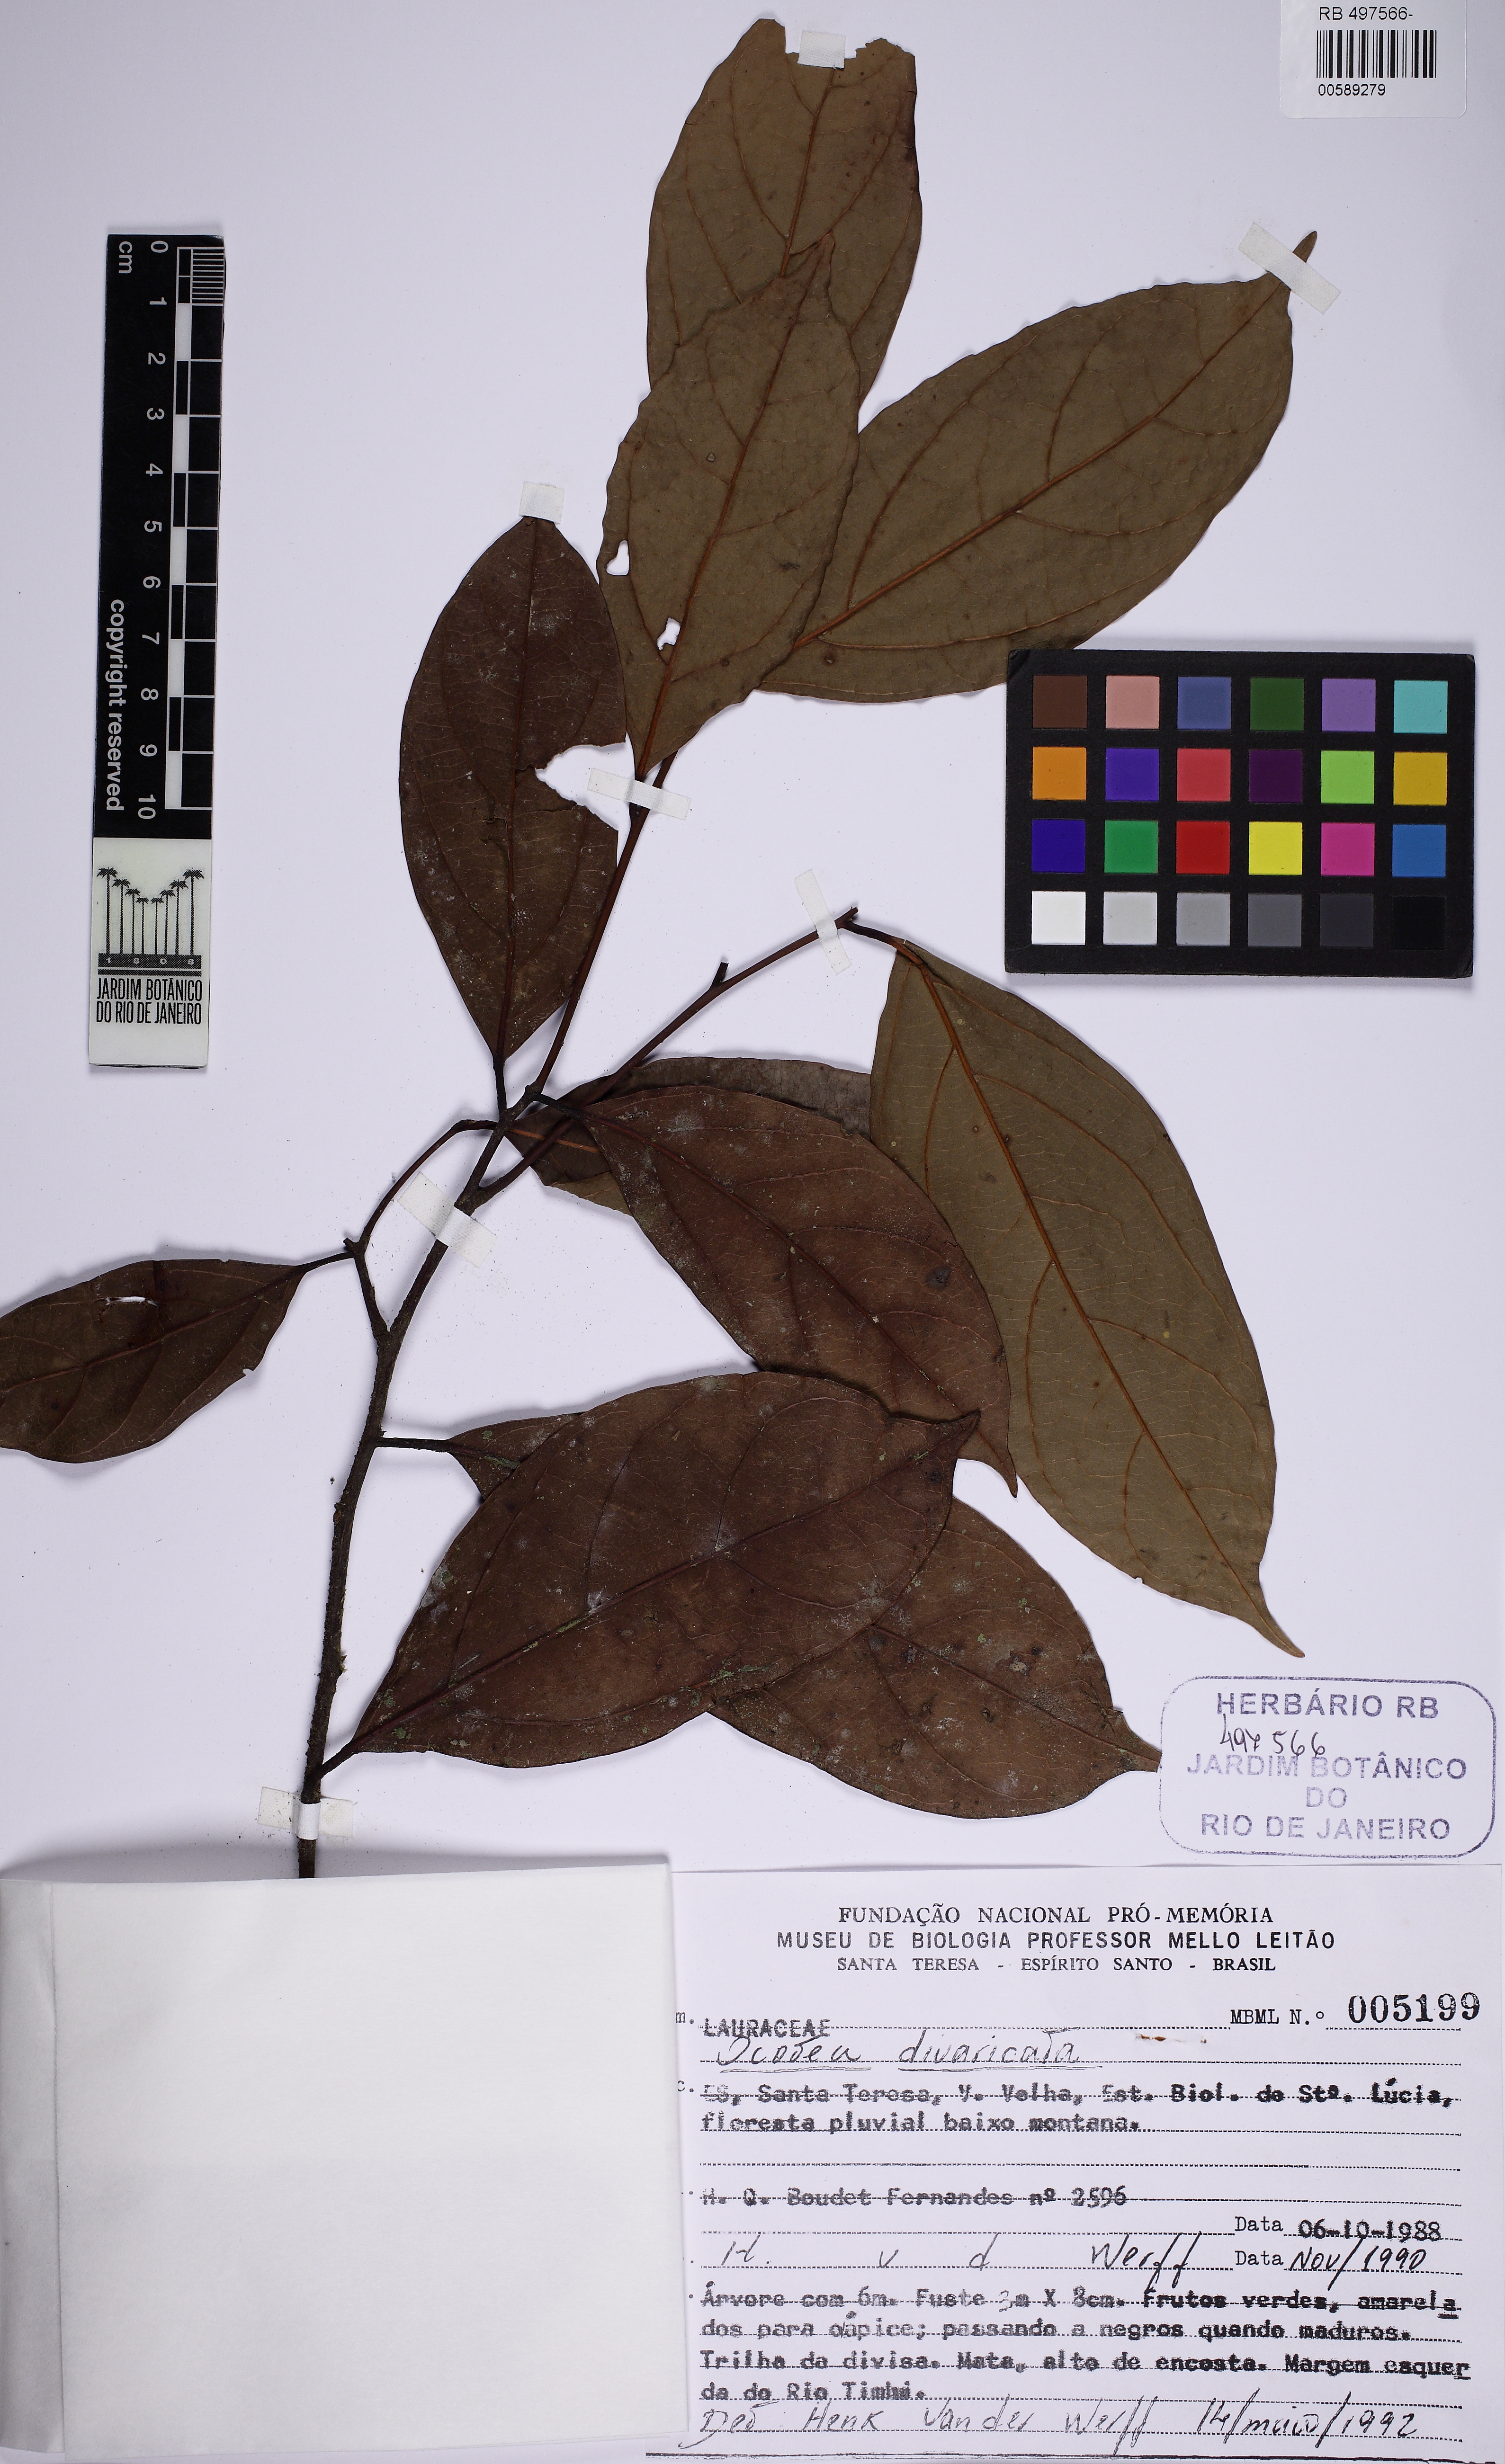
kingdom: Plantae
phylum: Tracheophyta
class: Magnoliopsida
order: Laurales
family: Lauraceae
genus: Ocotea
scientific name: Ocotea divaricata
